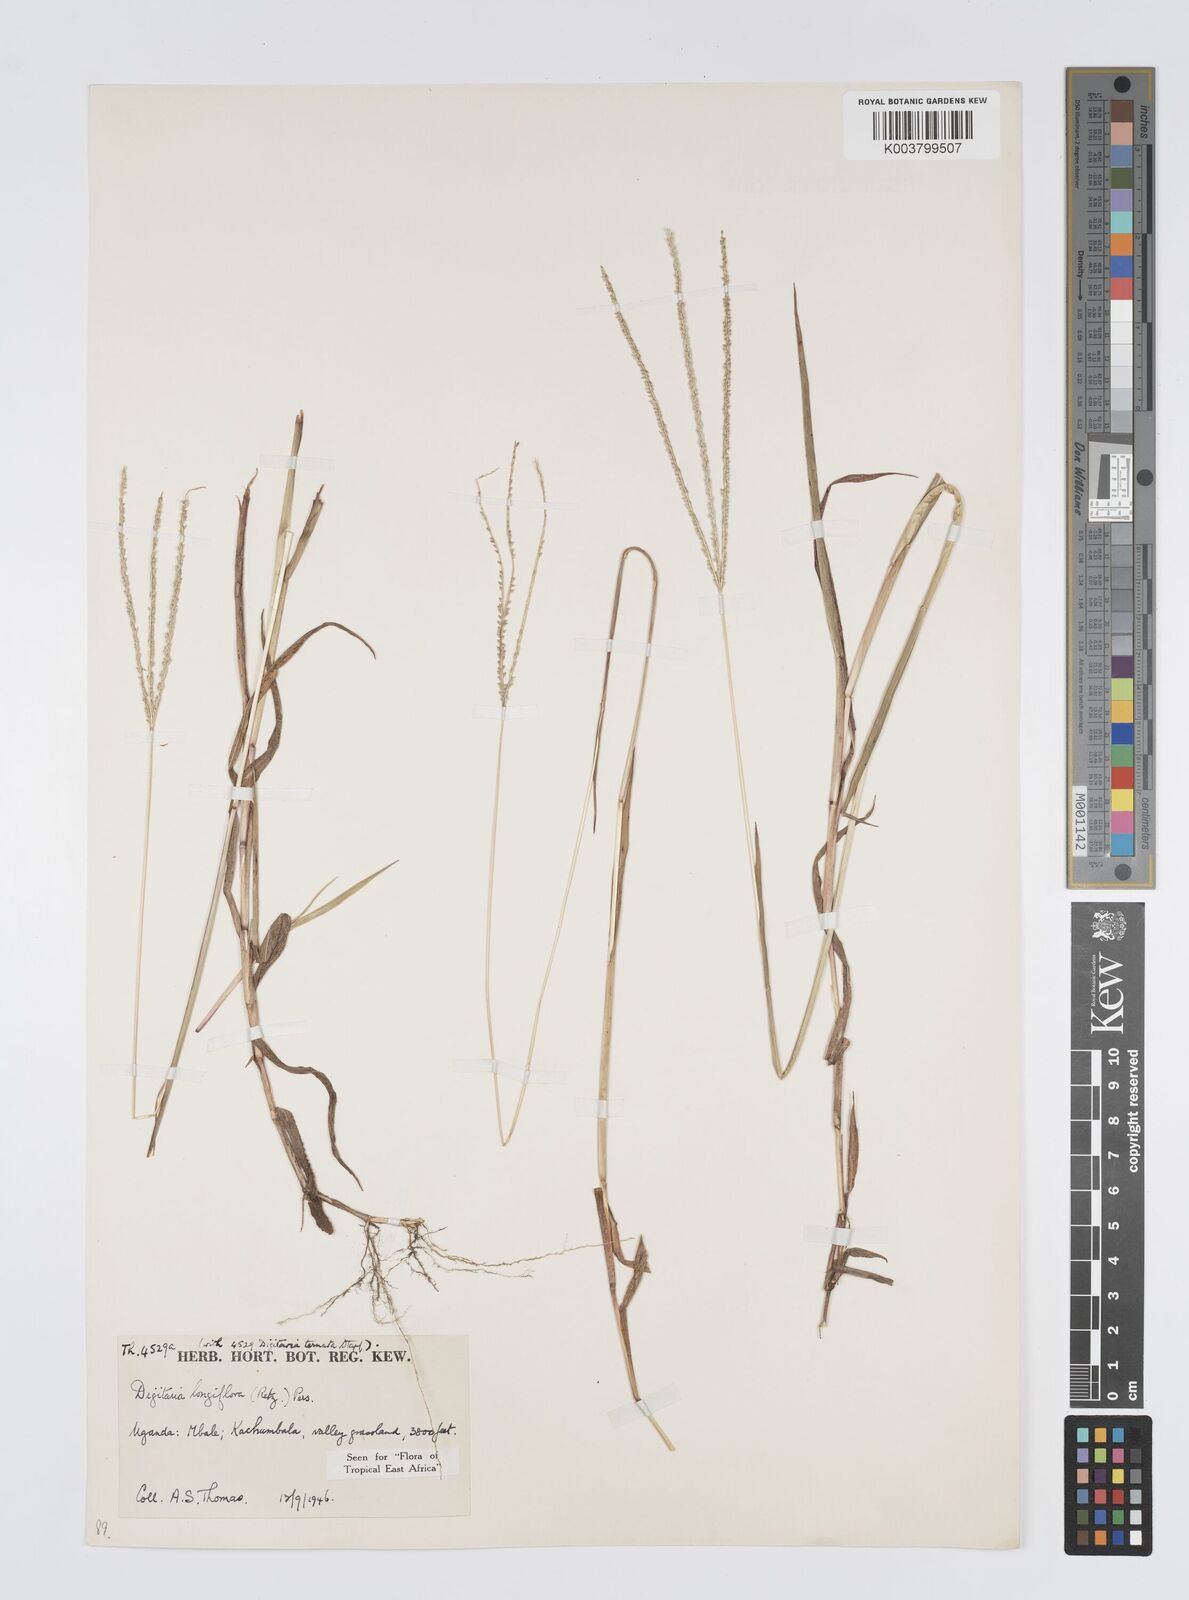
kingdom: Plantae
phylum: Tracheophyta
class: Liliopsida
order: Poales
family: Poaceae
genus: Digitaria
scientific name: Digitaria longiflora
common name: Wire crabgrass
